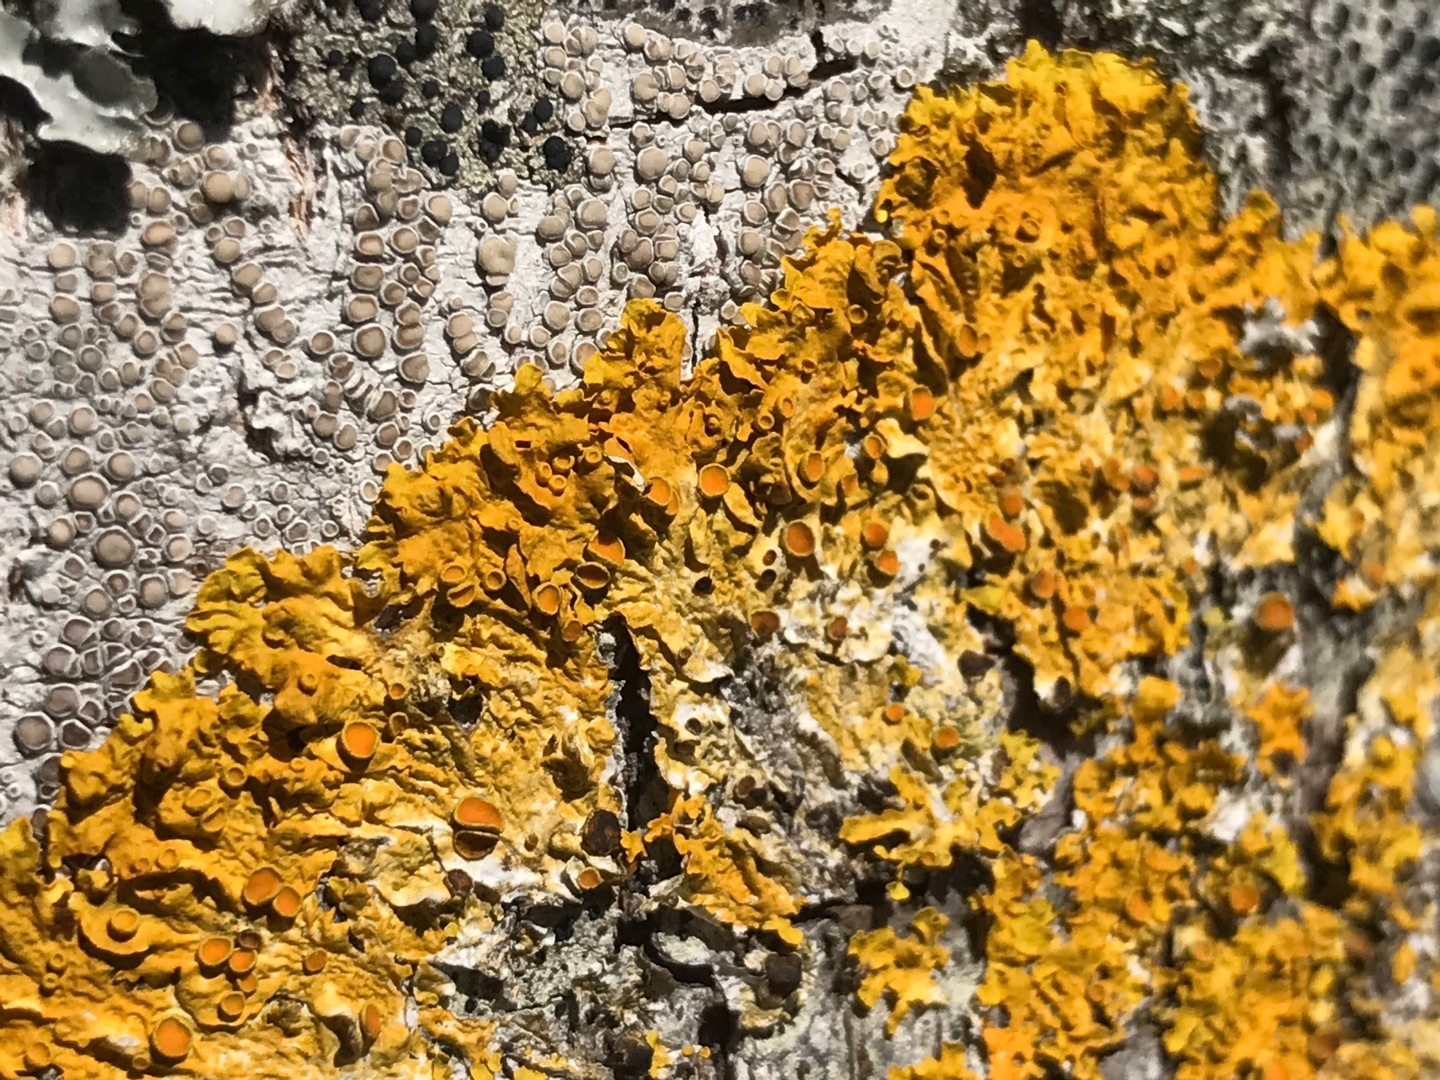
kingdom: Fungi
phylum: Ascomycota
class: Lecanoromycetes
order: Teloschistales
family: Teloschistaceae
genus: Xanthoria
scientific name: Xanthoria parietina
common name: Almindelig væggelav
